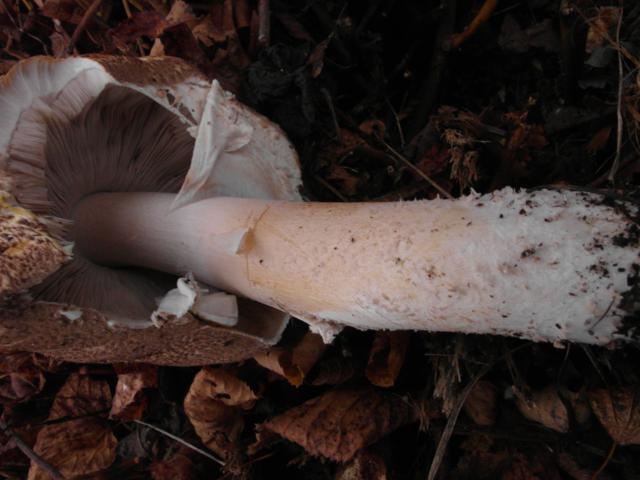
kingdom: Fungi
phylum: Basidiomycota
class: Agaricomycetes
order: Agaricales
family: Agaricaceae
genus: Agaricus
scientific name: Agaricus augustus
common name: prægtig champignon
